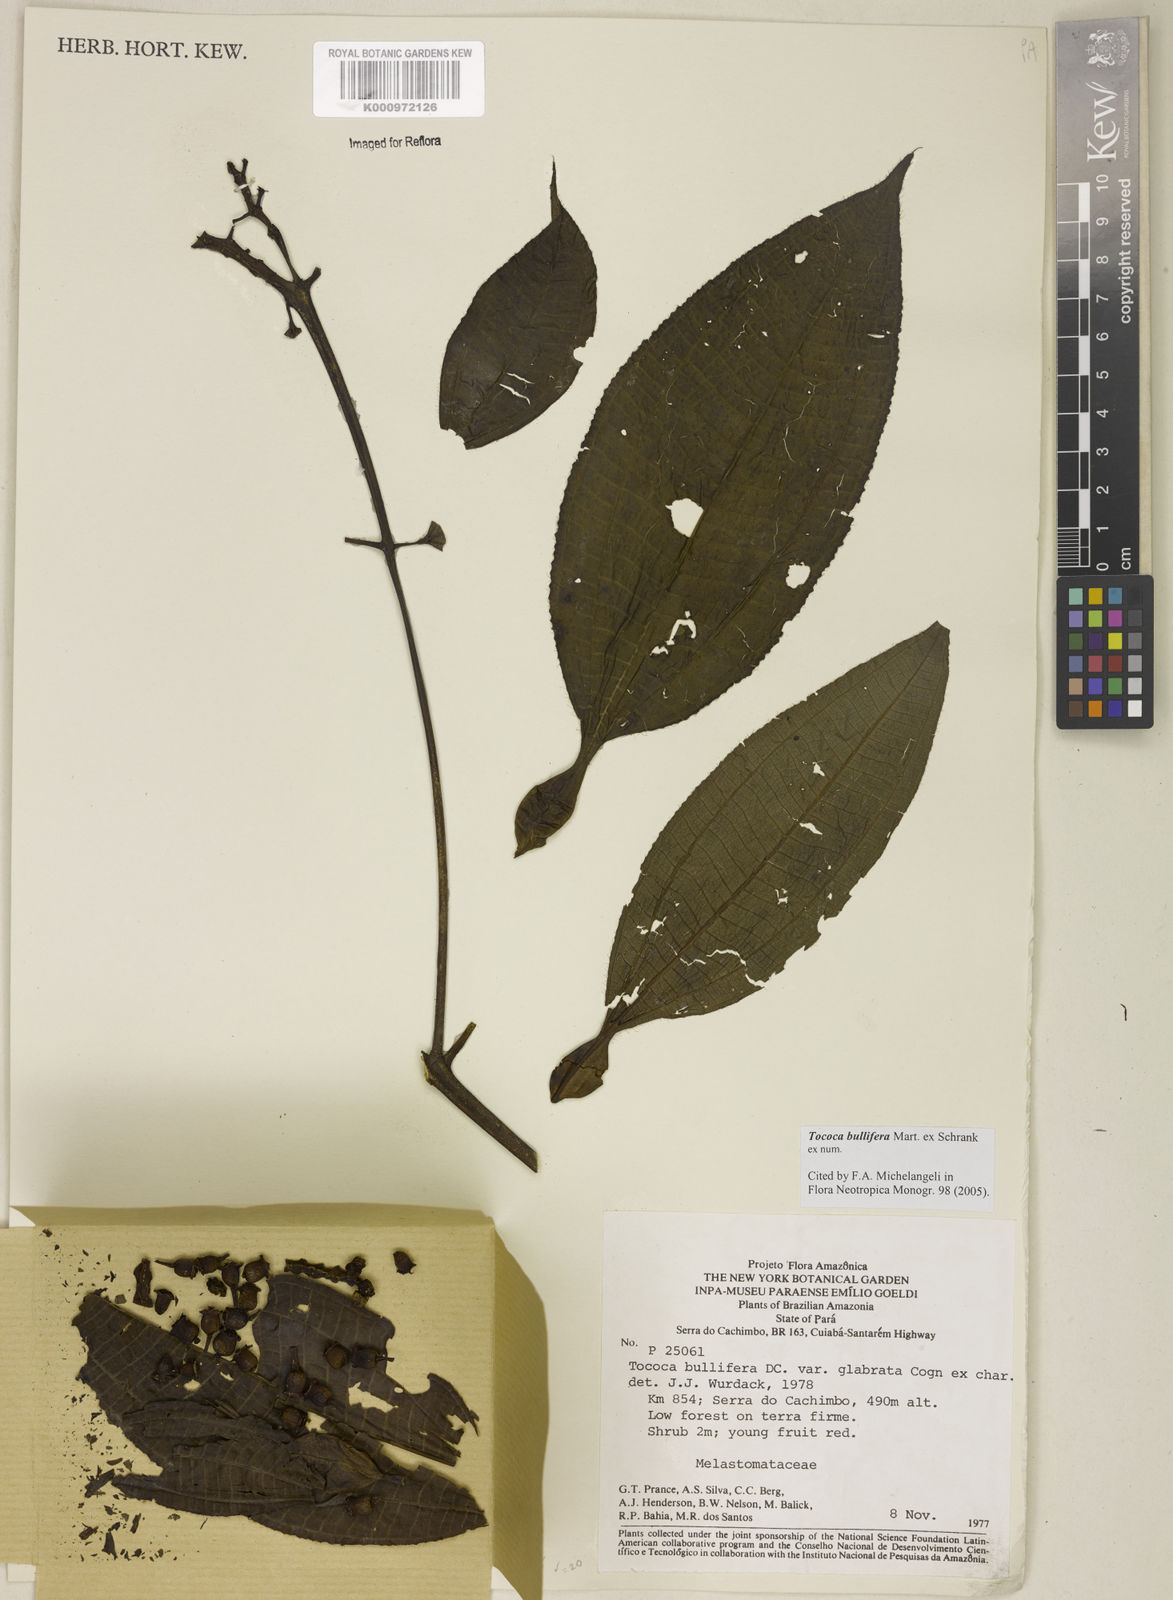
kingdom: Plantae
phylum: Tracheophyta
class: Magnoliopsida
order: Myrtales
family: Melastomataceae
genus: Miconia
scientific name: Miconia bullifera
